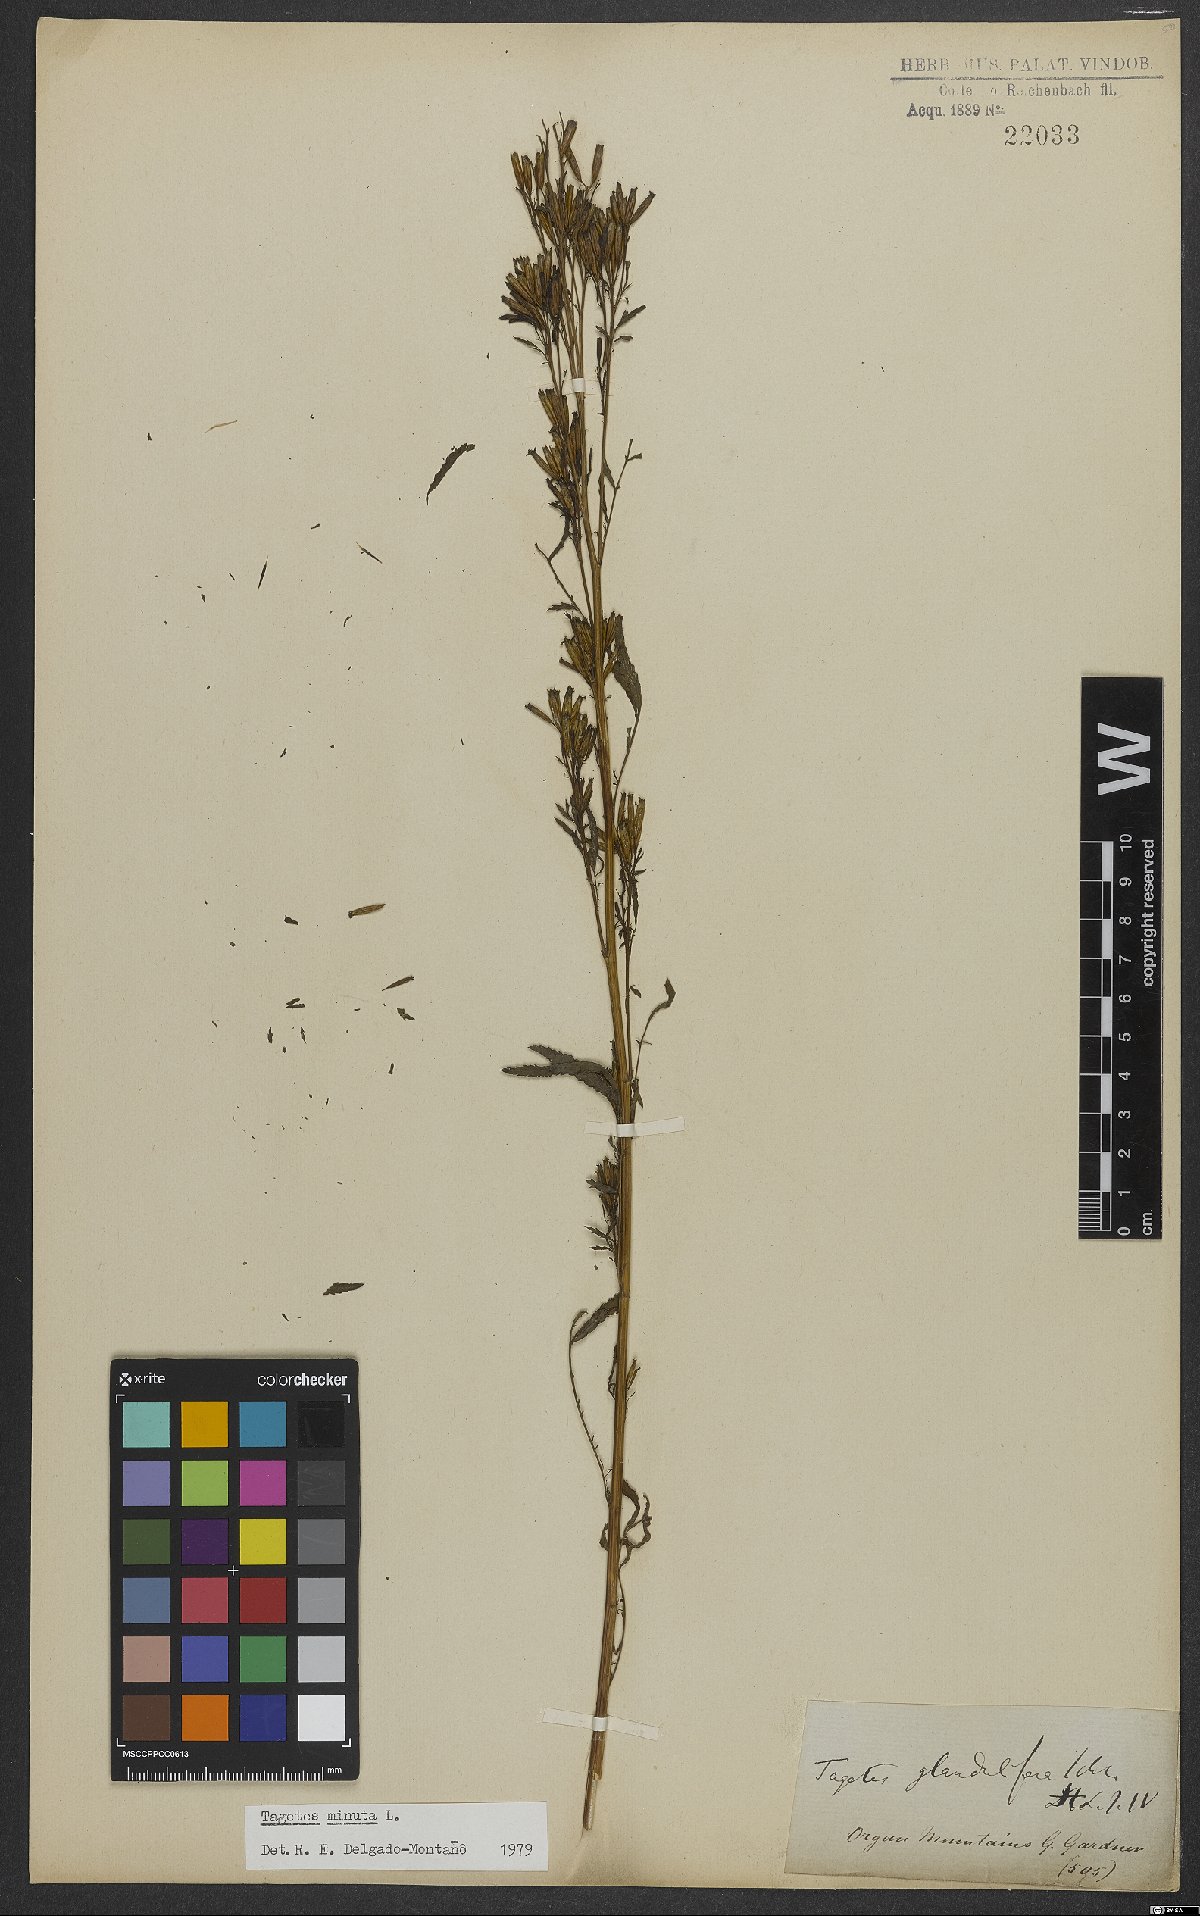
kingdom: Plantae
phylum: Tracheophyta
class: Magnoliopsida
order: Asterales
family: Asteraceae
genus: Tagetes
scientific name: Tagetes minuta
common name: Muster john henry
